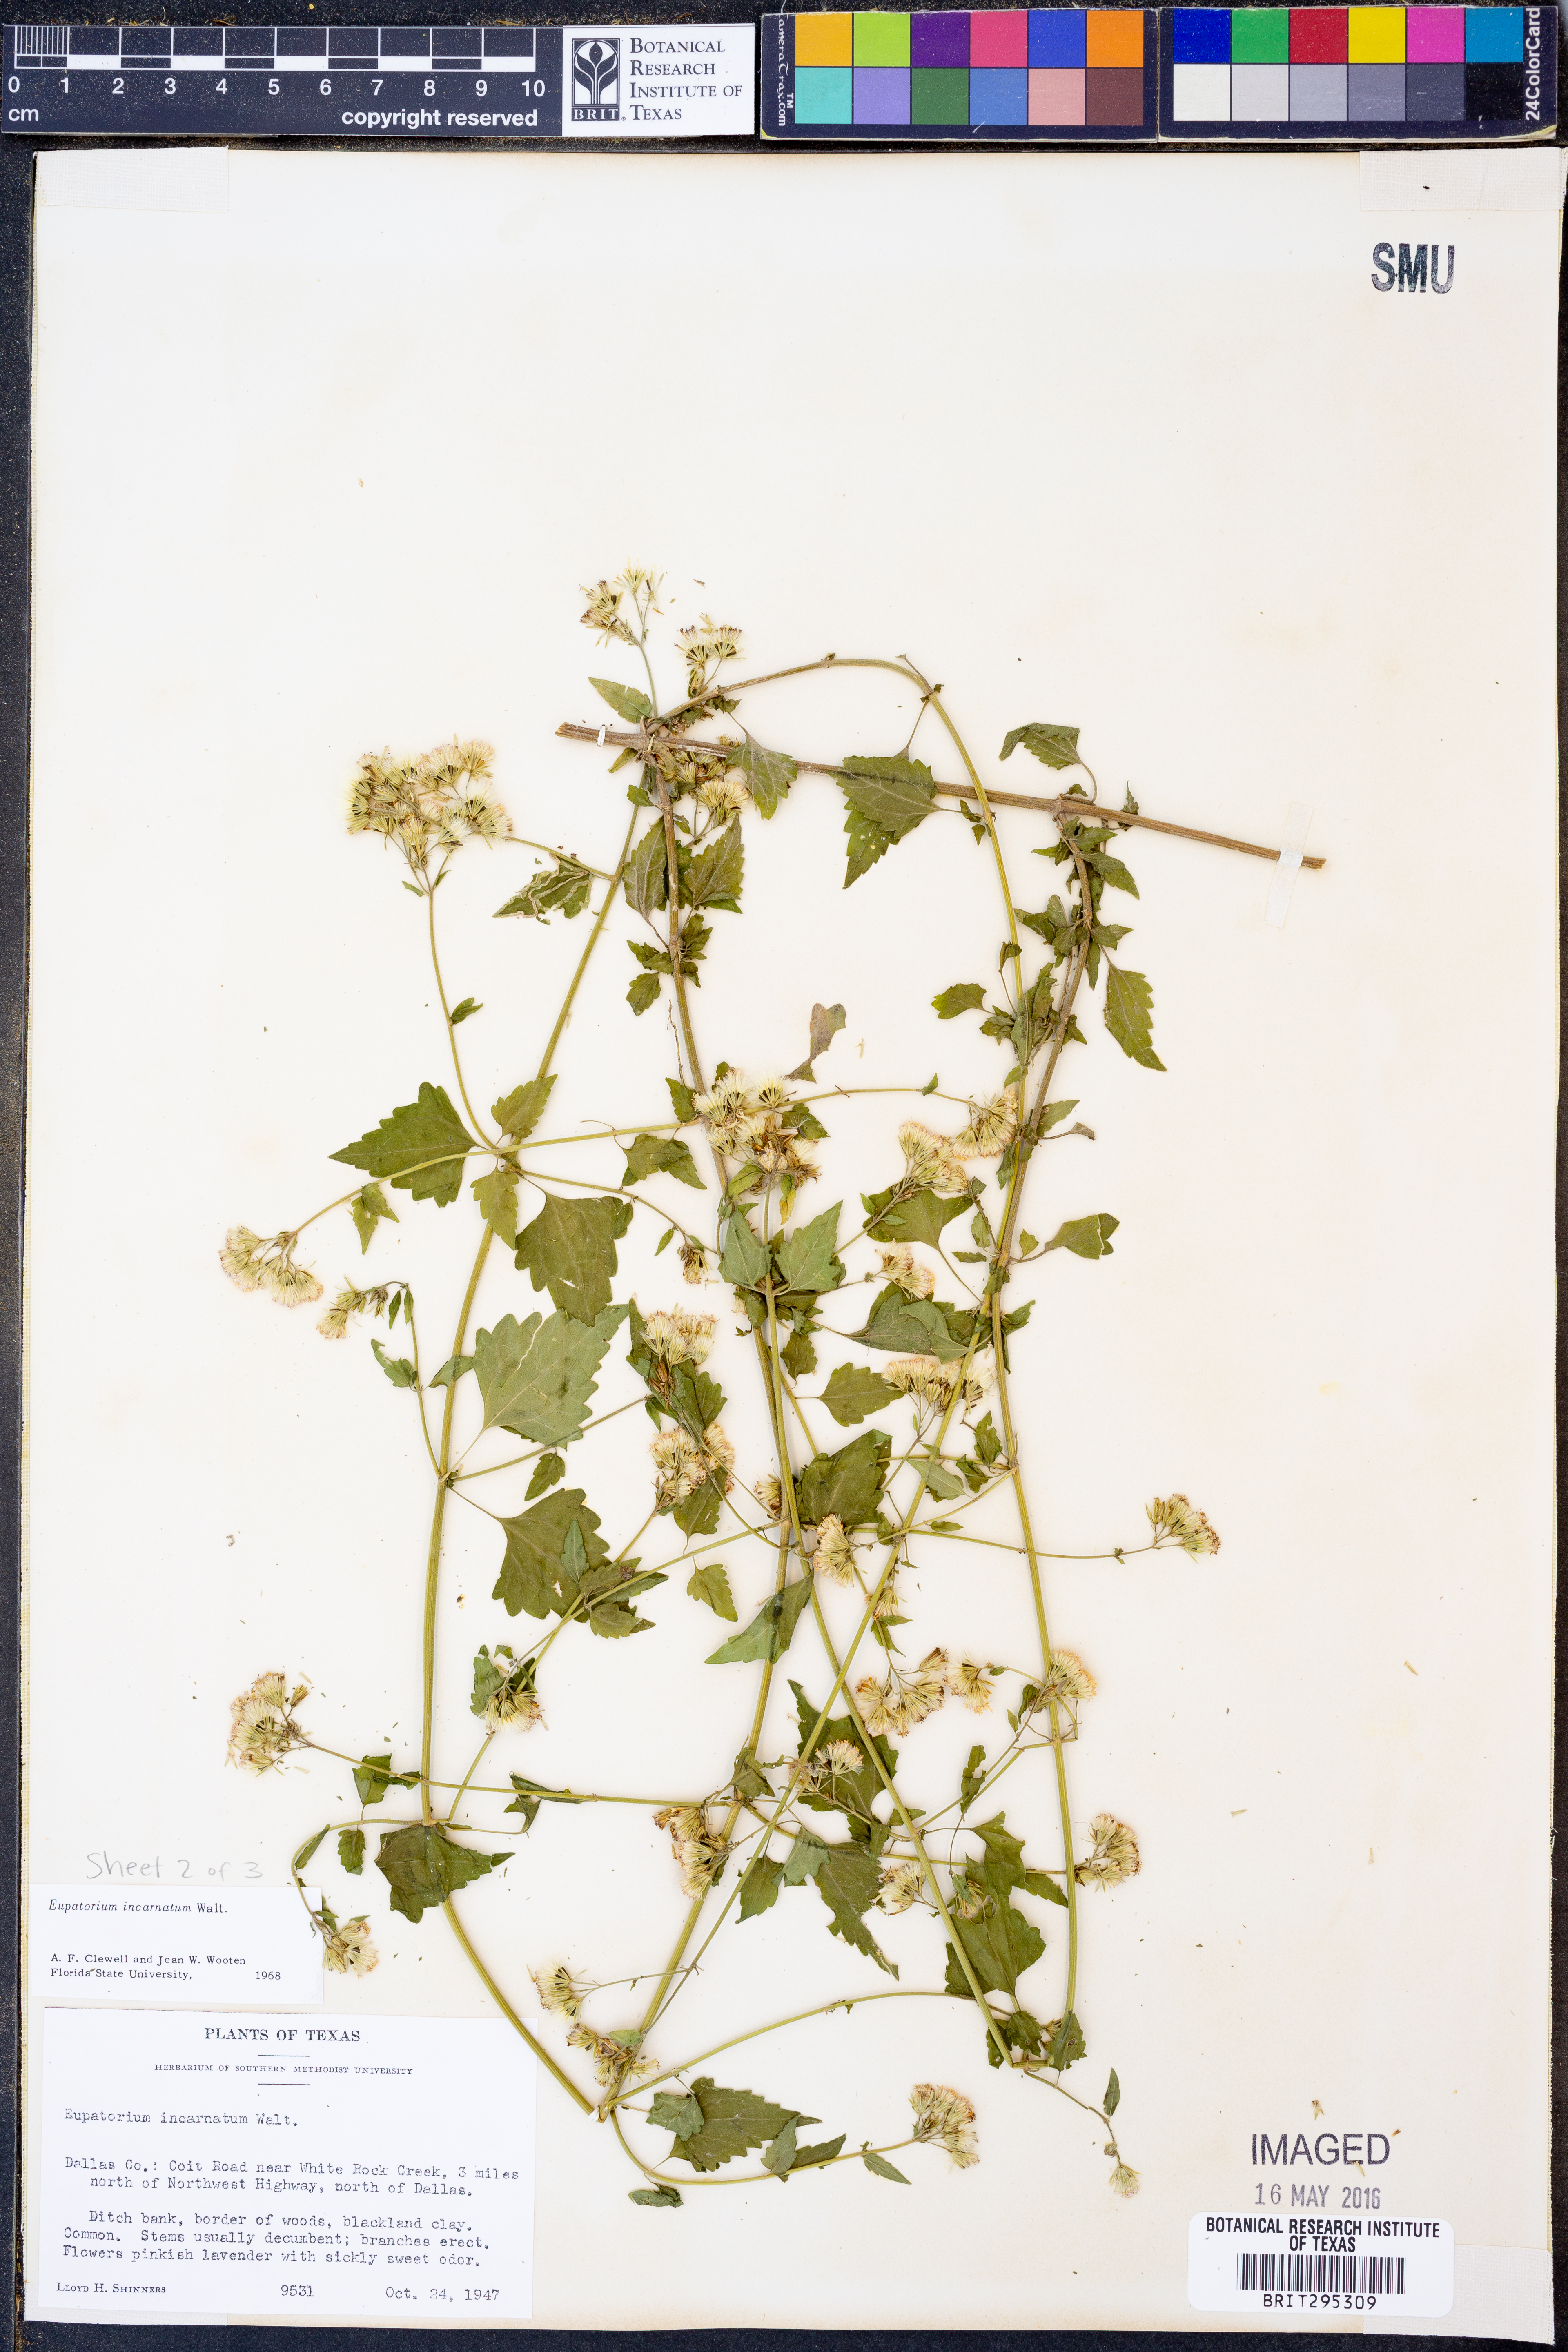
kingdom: Plantae
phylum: Tracheophyta
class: Magnoliopsida
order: Asterales
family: Asteraceae
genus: Fleischmannia
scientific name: Fleischmannia incarnata
